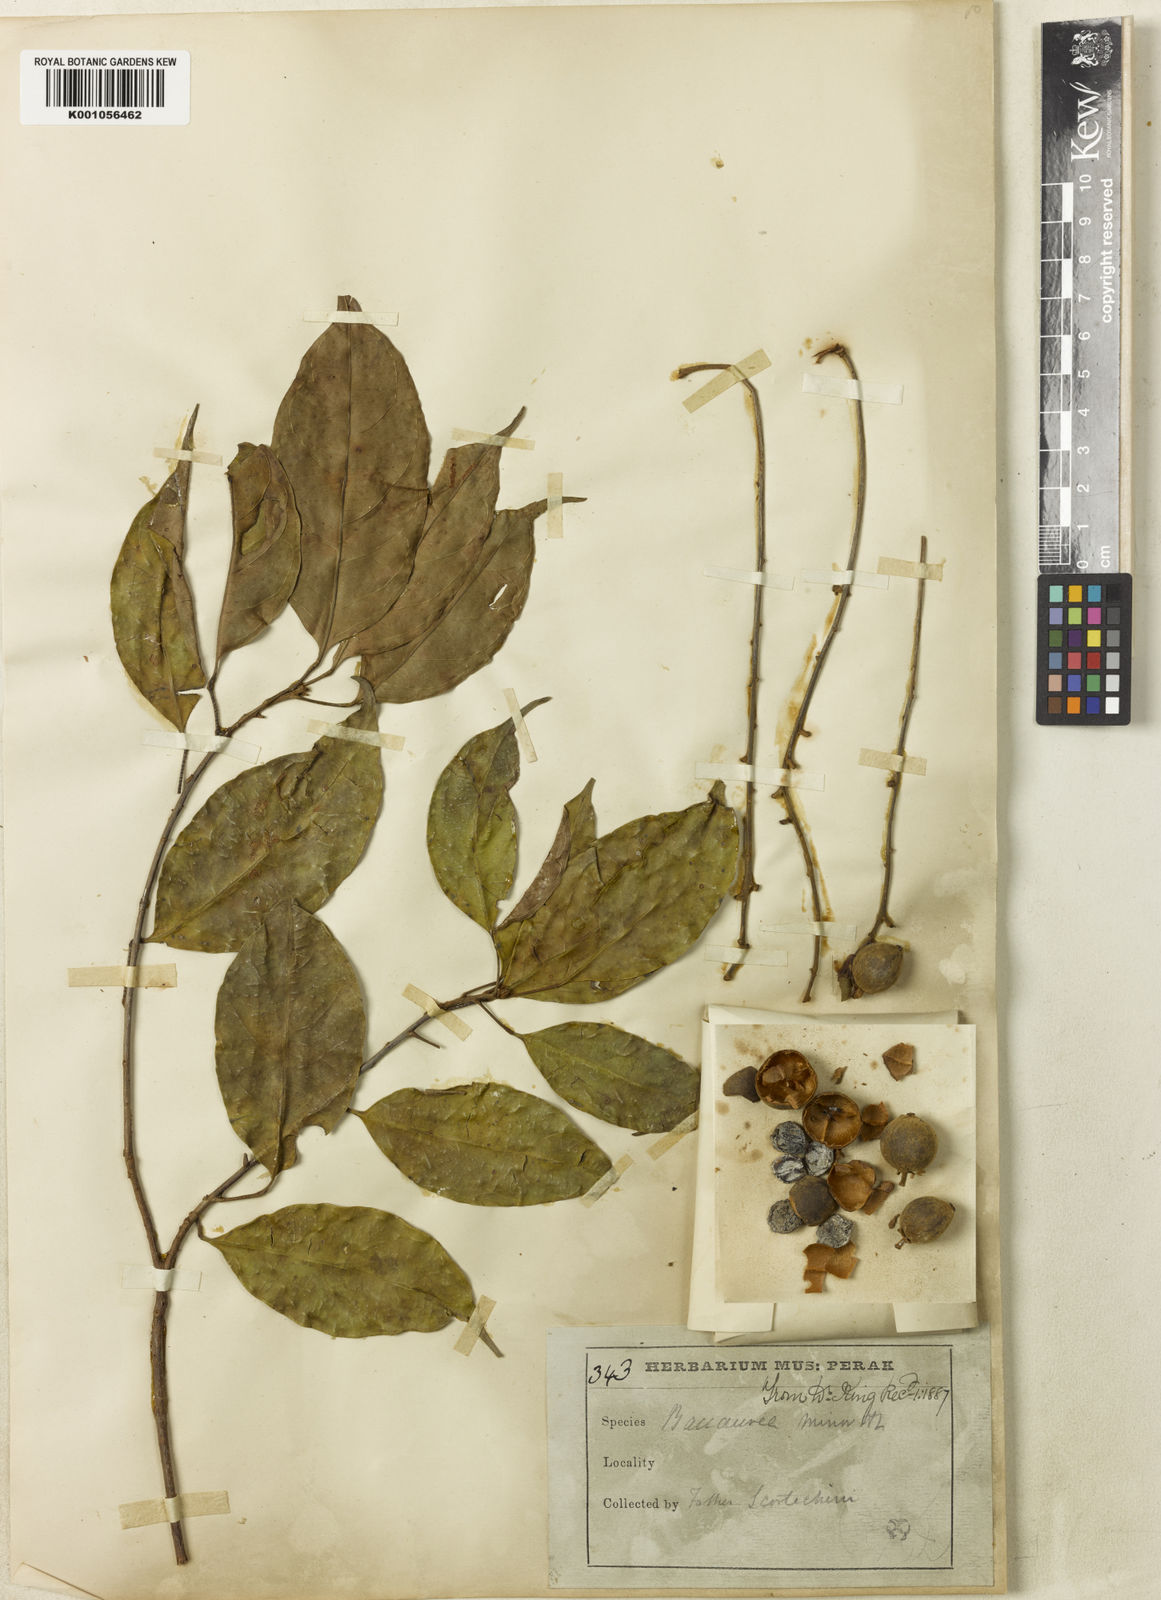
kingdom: Plantae
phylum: Tracheophyta
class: Magnoliopsida
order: Malpighiales
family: Phyllanthaceae
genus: Baccaurea
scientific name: Baccaurea minor
